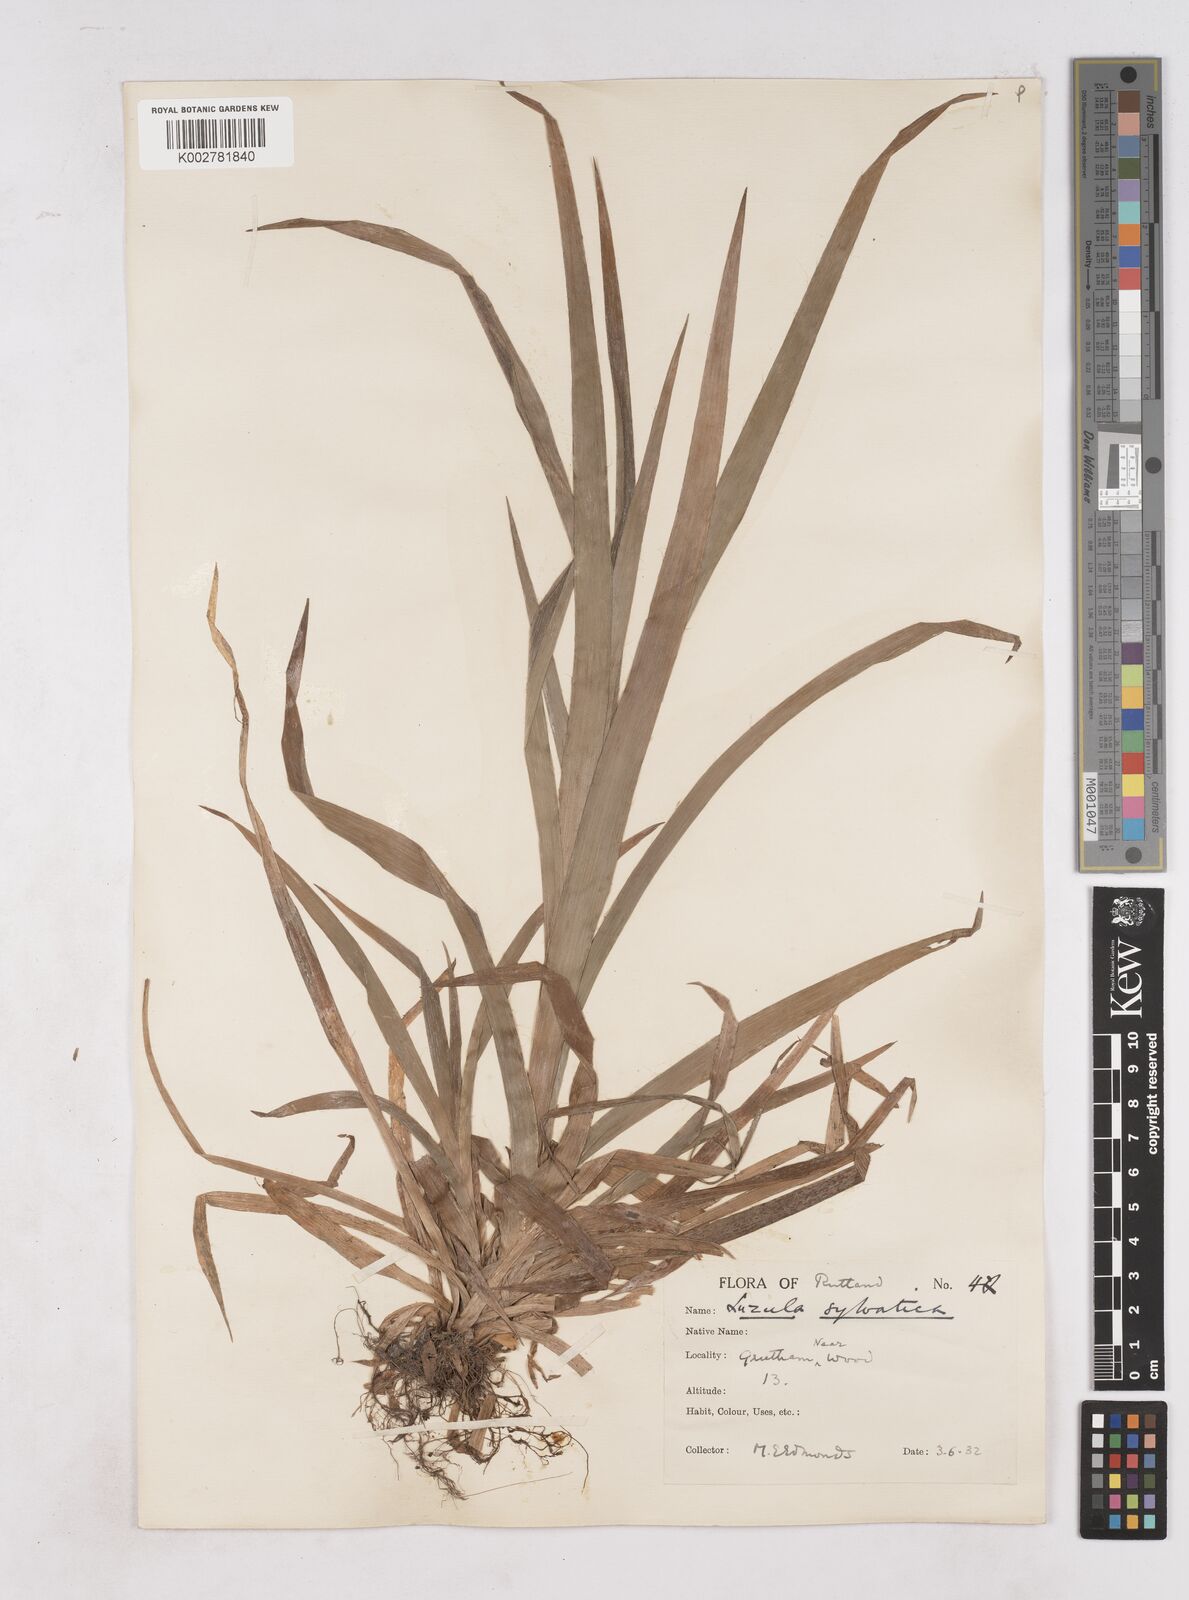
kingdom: Plantae
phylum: Tracheophyta
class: Liliopsida
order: Poales
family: Juncaceae
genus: Luzula
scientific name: Luzula sylvatica
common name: Great wood-rush
